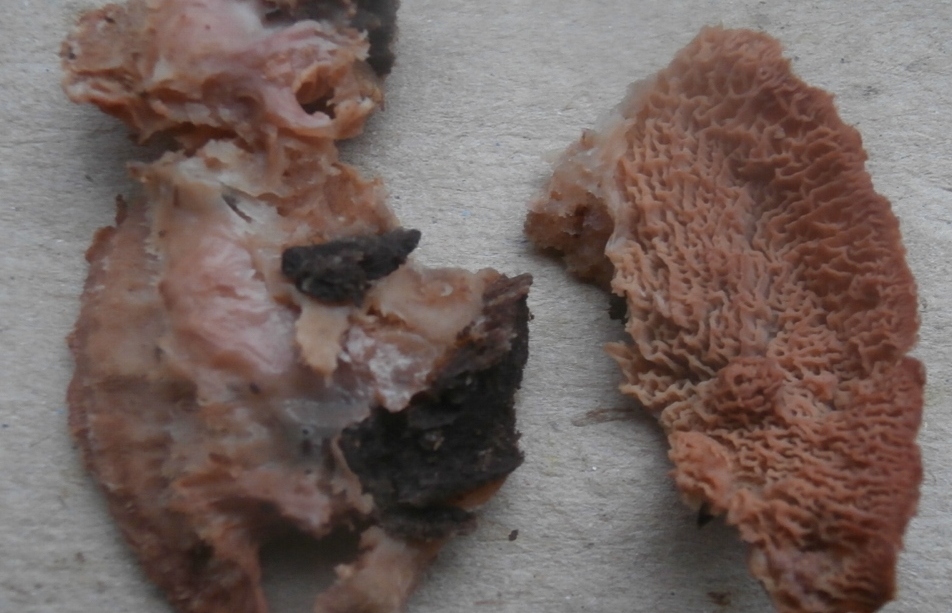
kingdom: Fungi
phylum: Basidiomycota
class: Agaricomycetes
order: Polyporales
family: Meruliaceae
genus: Phlebia
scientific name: Phlebia tremellosa
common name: bævrende åresvamp
